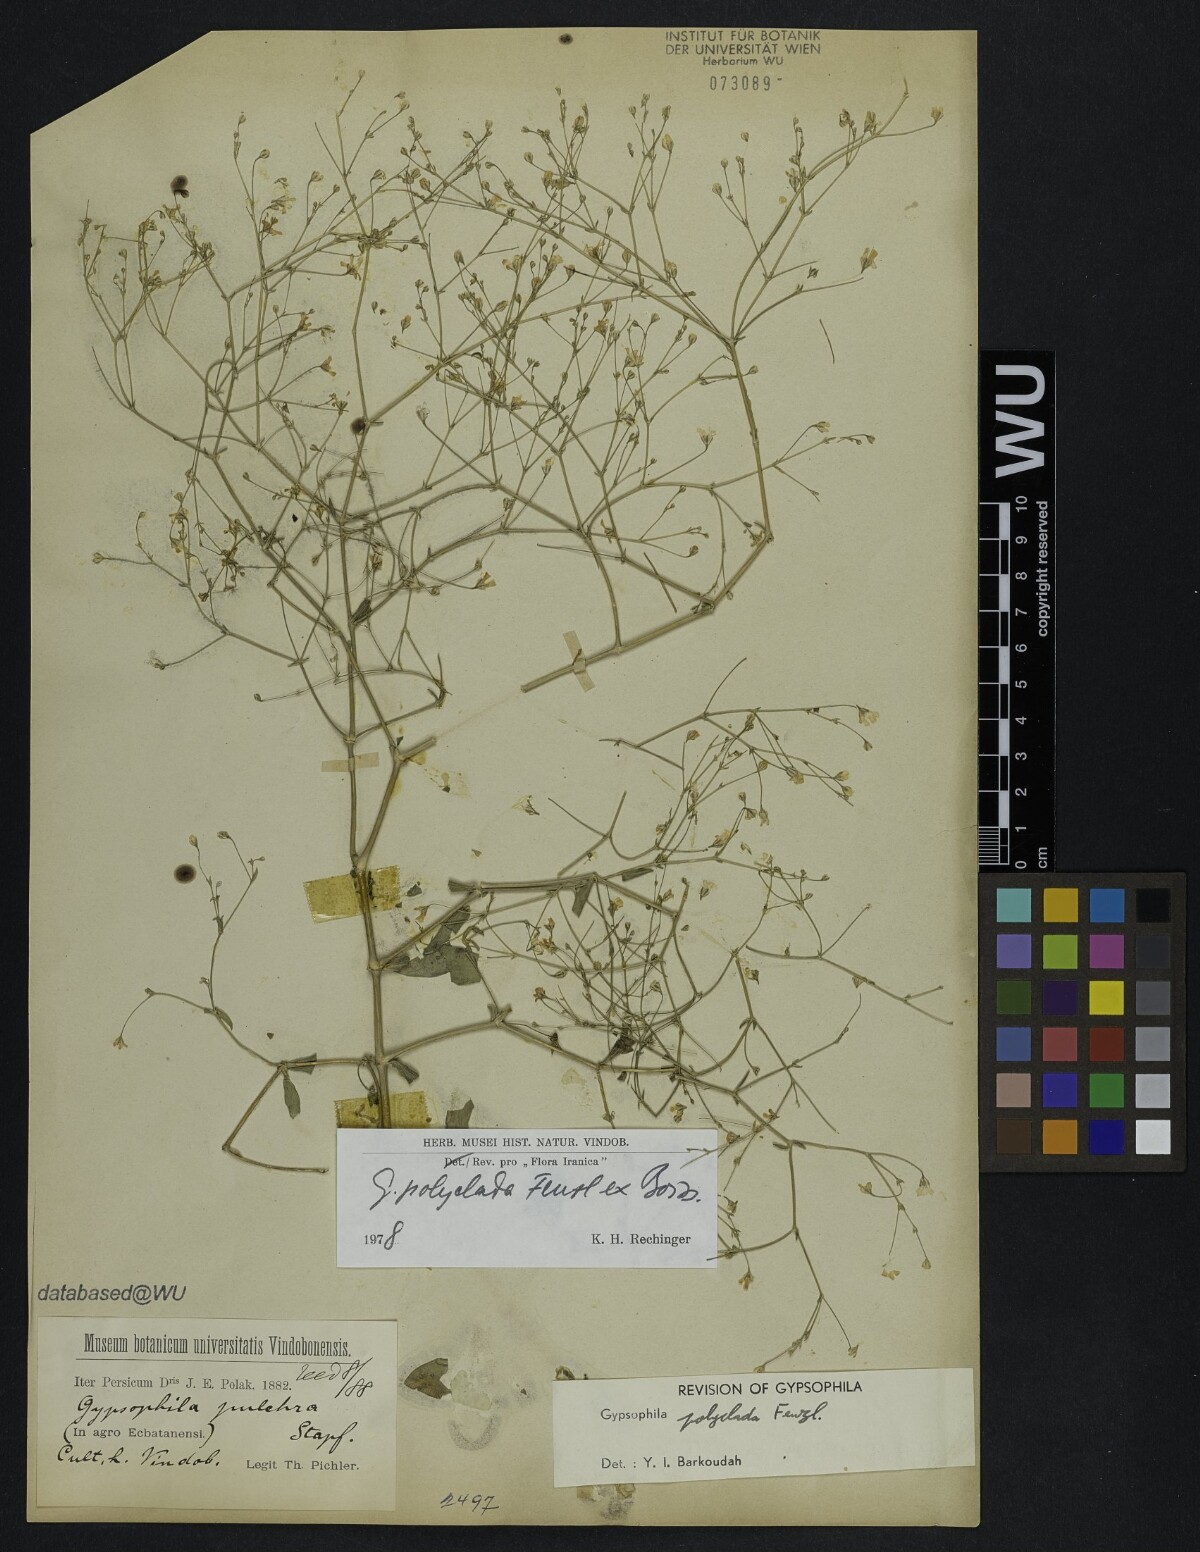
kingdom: Plantae
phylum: Tracheophyta
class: Magnoliopsida
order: Caryophyllales
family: Caryophyllaceae
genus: Gypsophila
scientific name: Gypsophila polyclada
